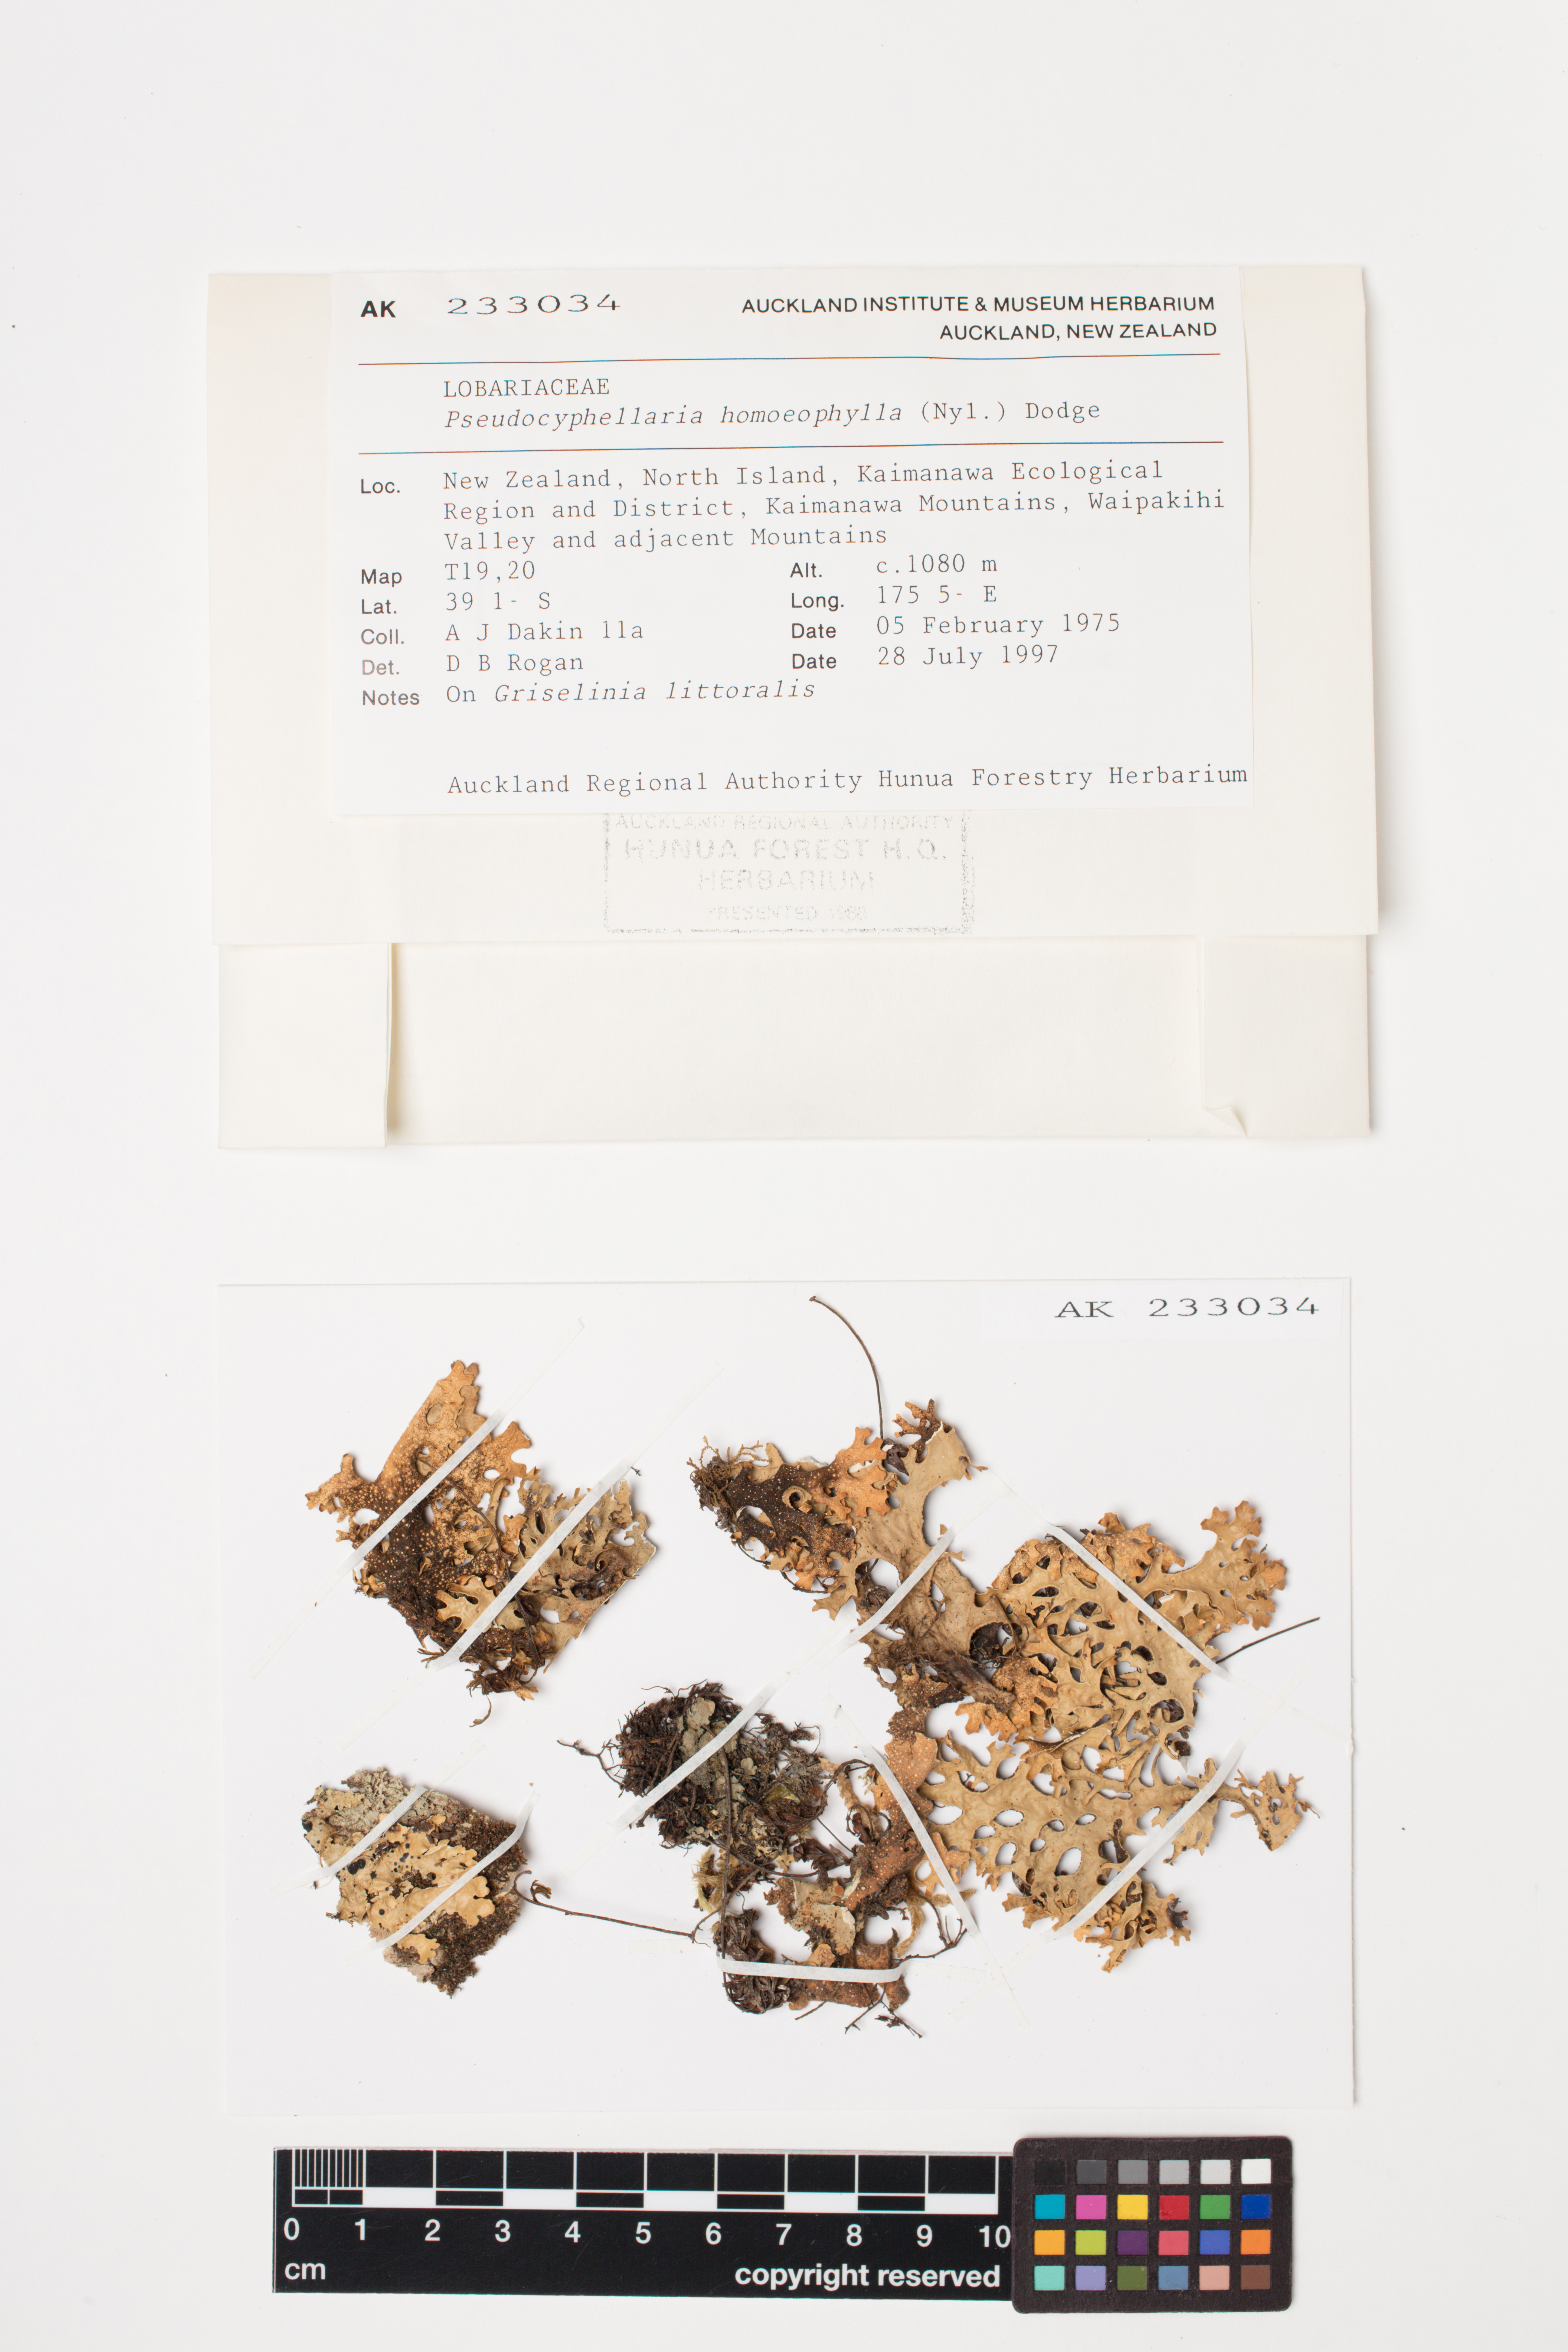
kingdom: Fungi
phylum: Ascomycota
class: Lecanoromycetes
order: Peltigerales
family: Lobariaceae
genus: Pseudocyphellaria
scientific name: Pseudocyphellaria homeophylla
